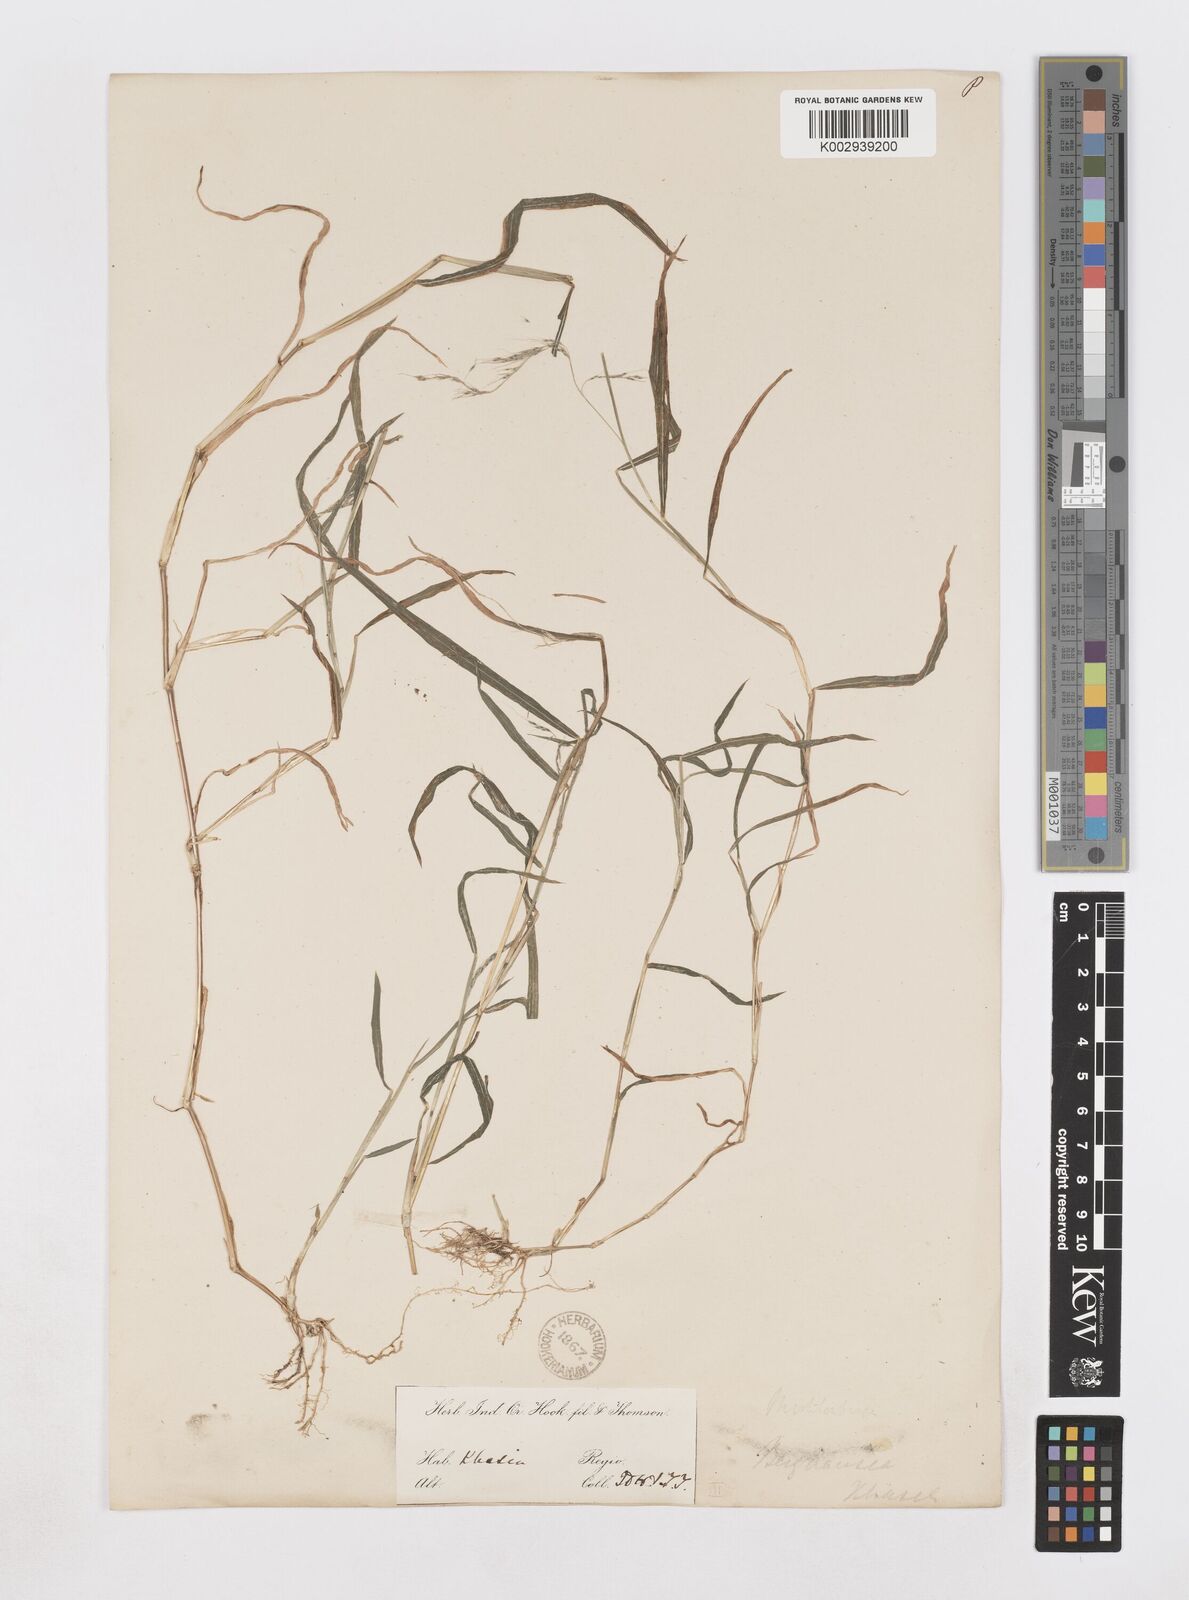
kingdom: Plantae
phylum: Tracheophyta
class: Liliopsida
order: Poales
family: Poaceae
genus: Muhlenbergia
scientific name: Muhlenbergia huegelii
